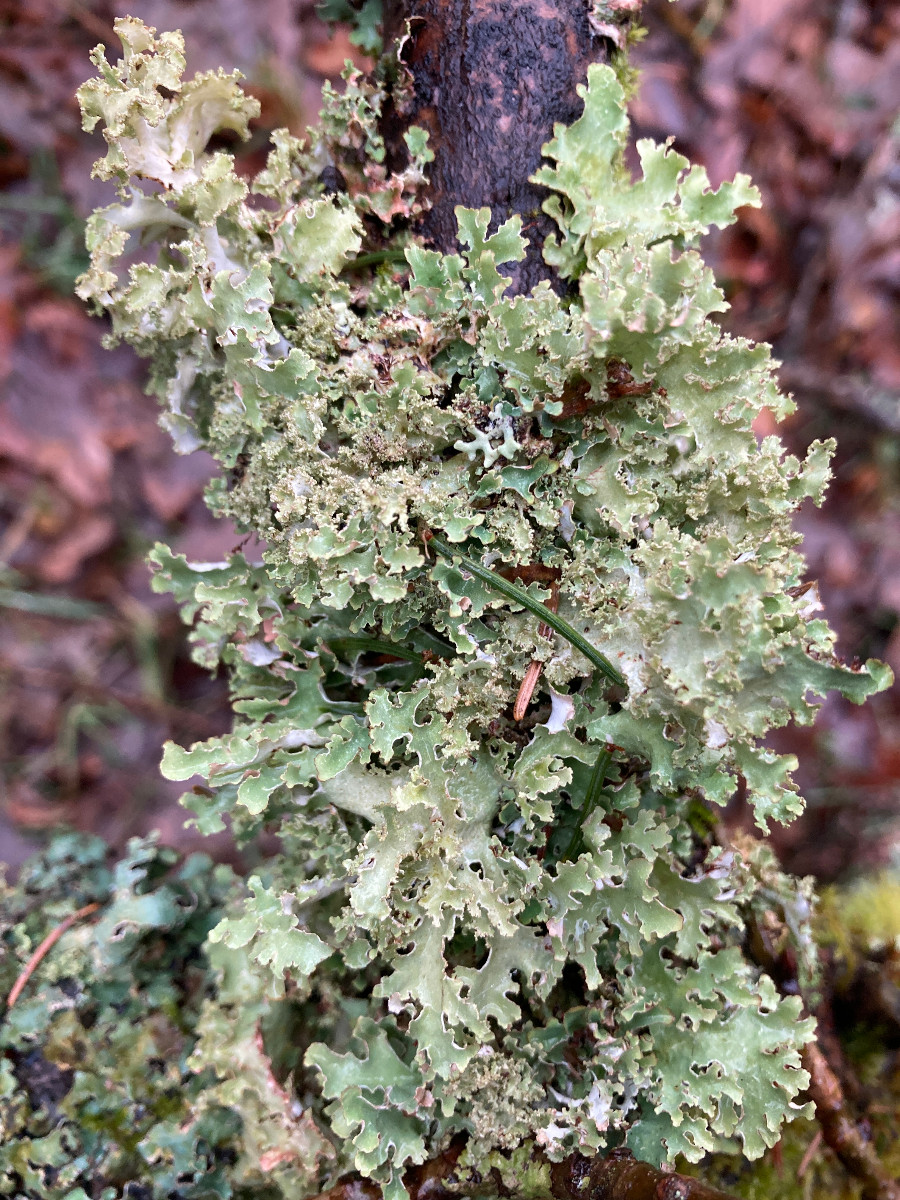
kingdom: Fungi
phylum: Ascomycota
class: Lecanoromycetes
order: Lecanorales
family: Parmeliaceae
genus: Platismatia
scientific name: Platismatia glauca
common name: blågrå papirlav
